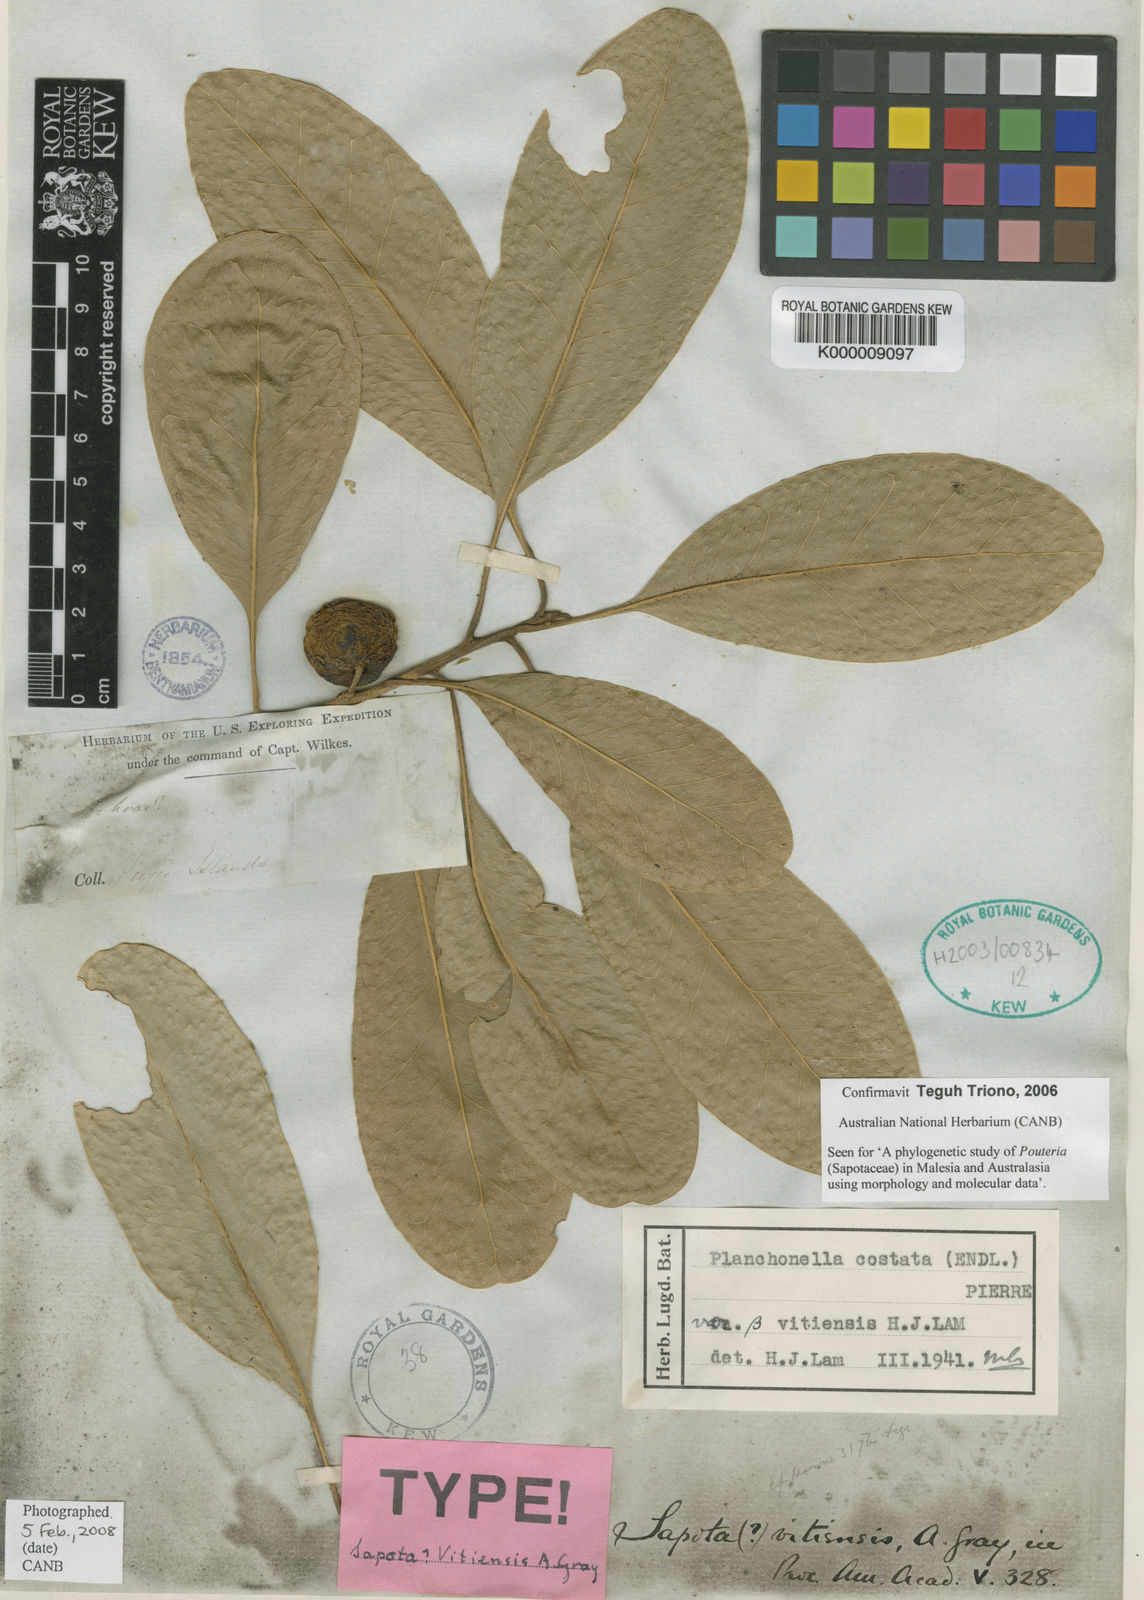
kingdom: Plantae
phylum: Tracheophyta
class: Magnoliopsida
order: Ericales
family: Sapotaceae
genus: Planchonella
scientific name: Planchonella costata
